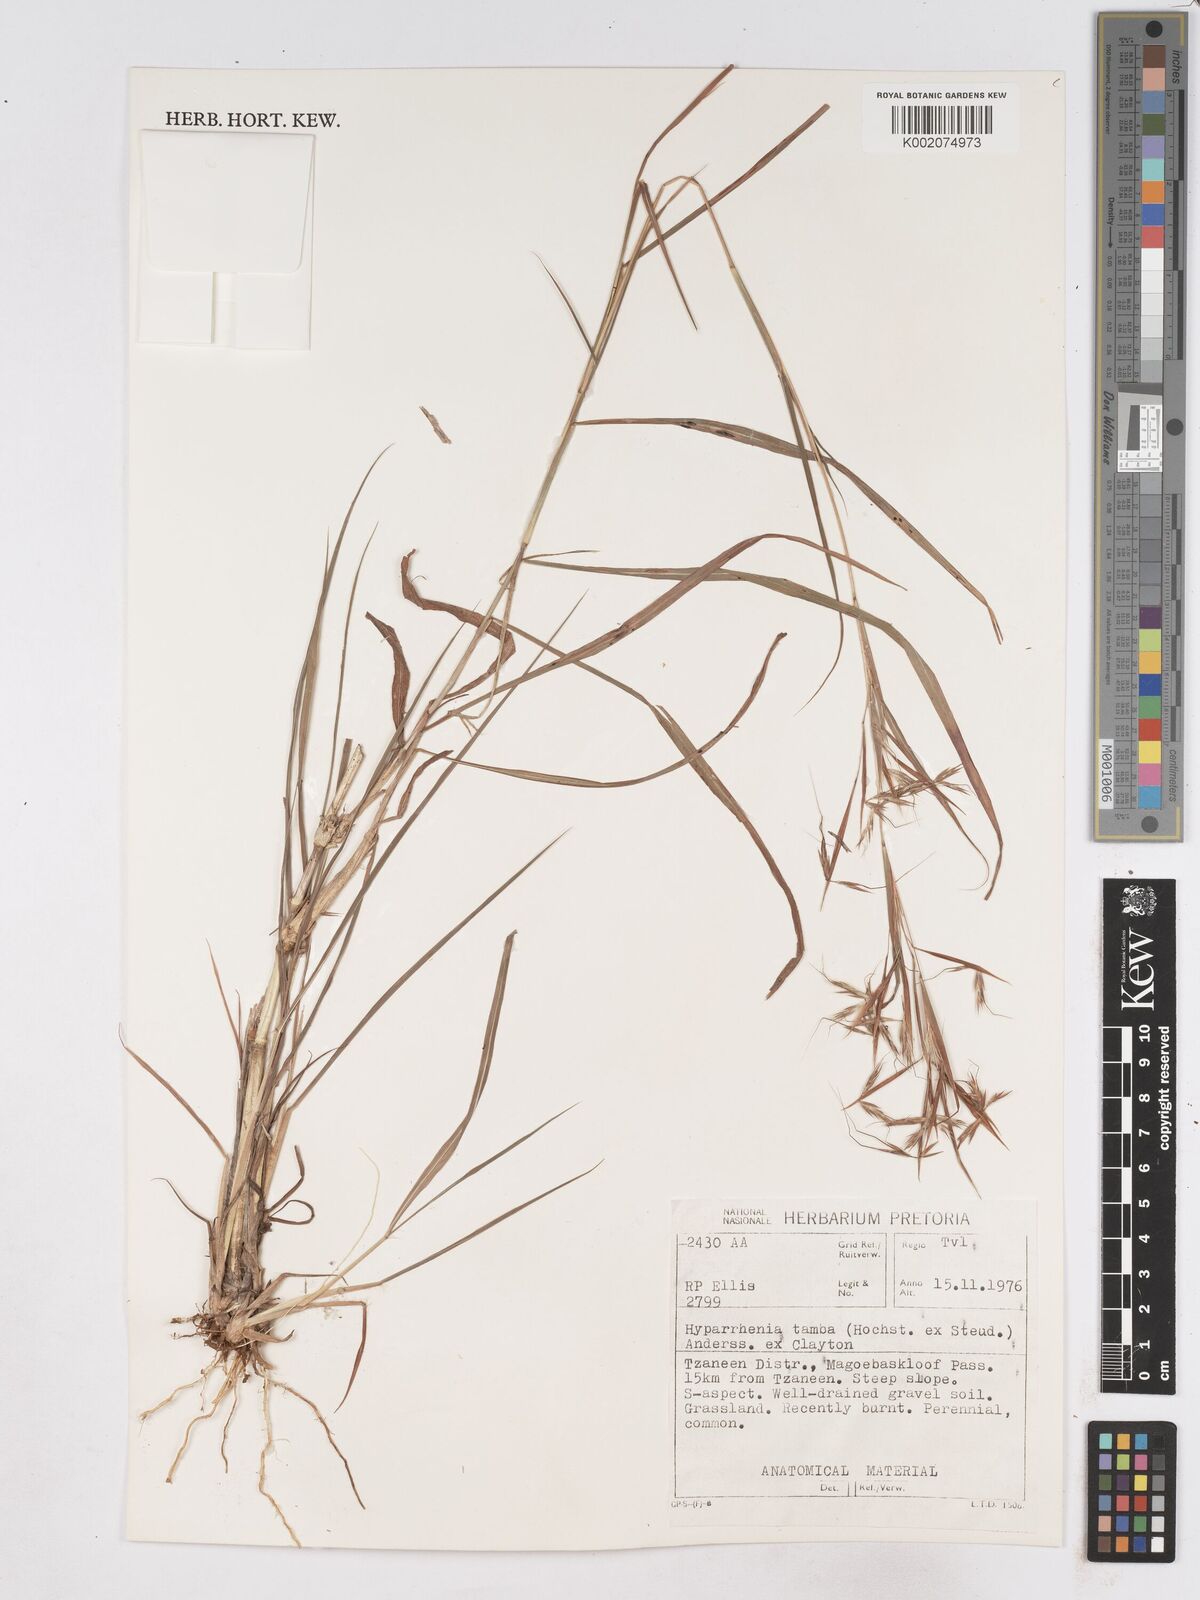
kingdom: Plantae
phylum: Tracheophyta
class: Liliopsida
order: Poales
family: Poaceae
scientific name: Poaceae
